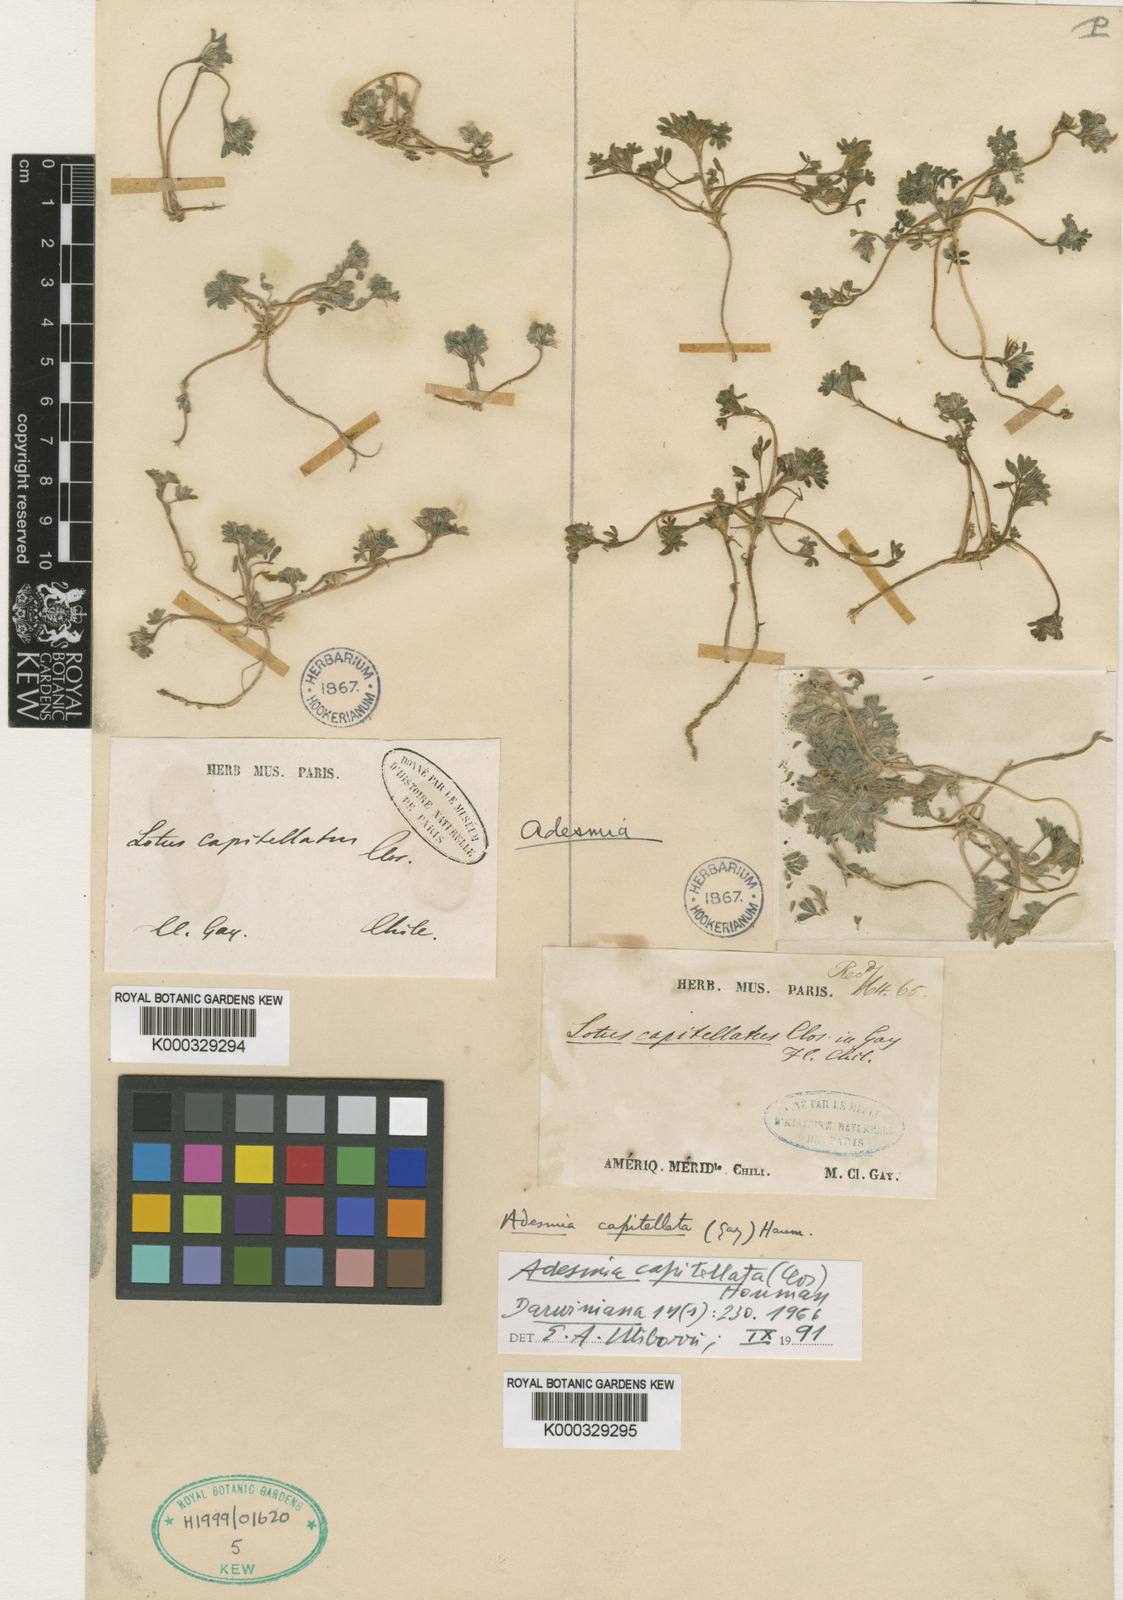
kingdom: Plantae
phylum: Tracheophyta
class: Magnoliopsida
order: Fabales
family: Fabaceae
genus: Adesmia
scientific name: Adesmia capitellata
